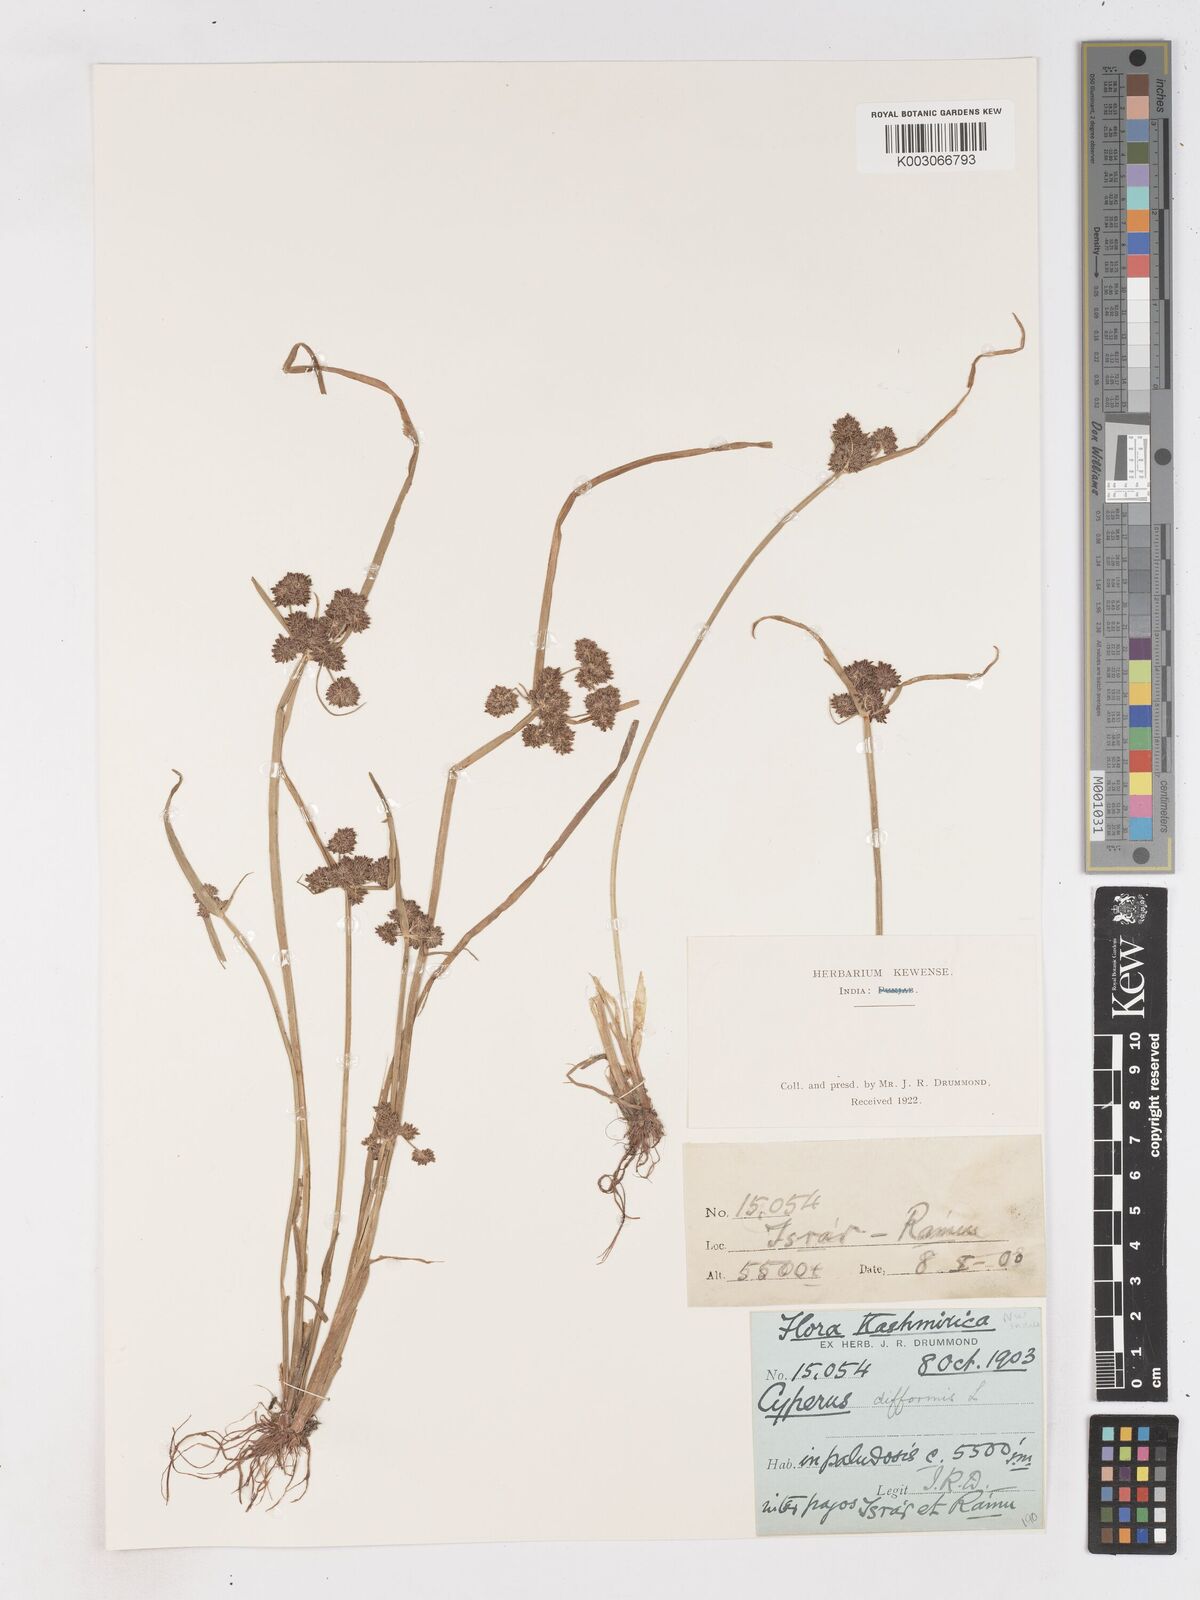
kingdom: Plantae
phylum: Tracheophyta
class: Liliopsida
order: Poales
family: Cyperaceae
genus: Cyperus
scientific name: Cyperus difformis
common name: Variable flatsedge
